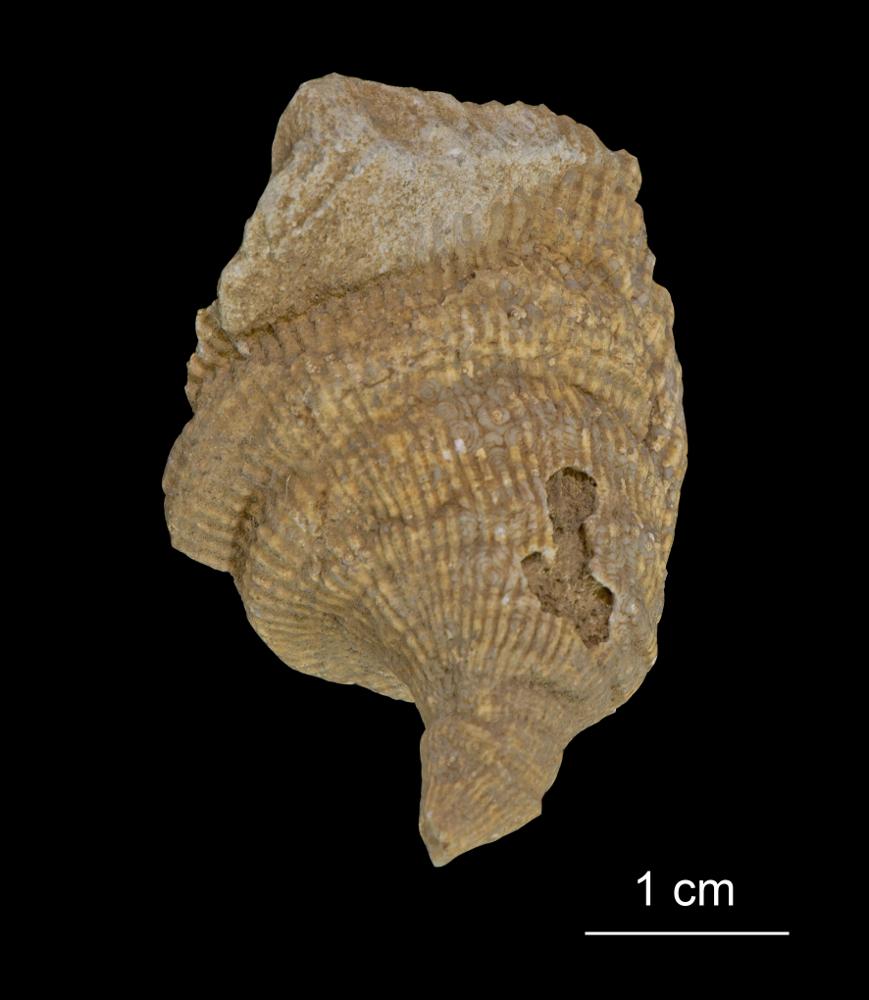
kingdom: Animalia
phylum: Cnidaria
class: Anthozoa
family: Streptelasmatidae
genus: Streptelasma
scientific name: Streptelasma corniculum
